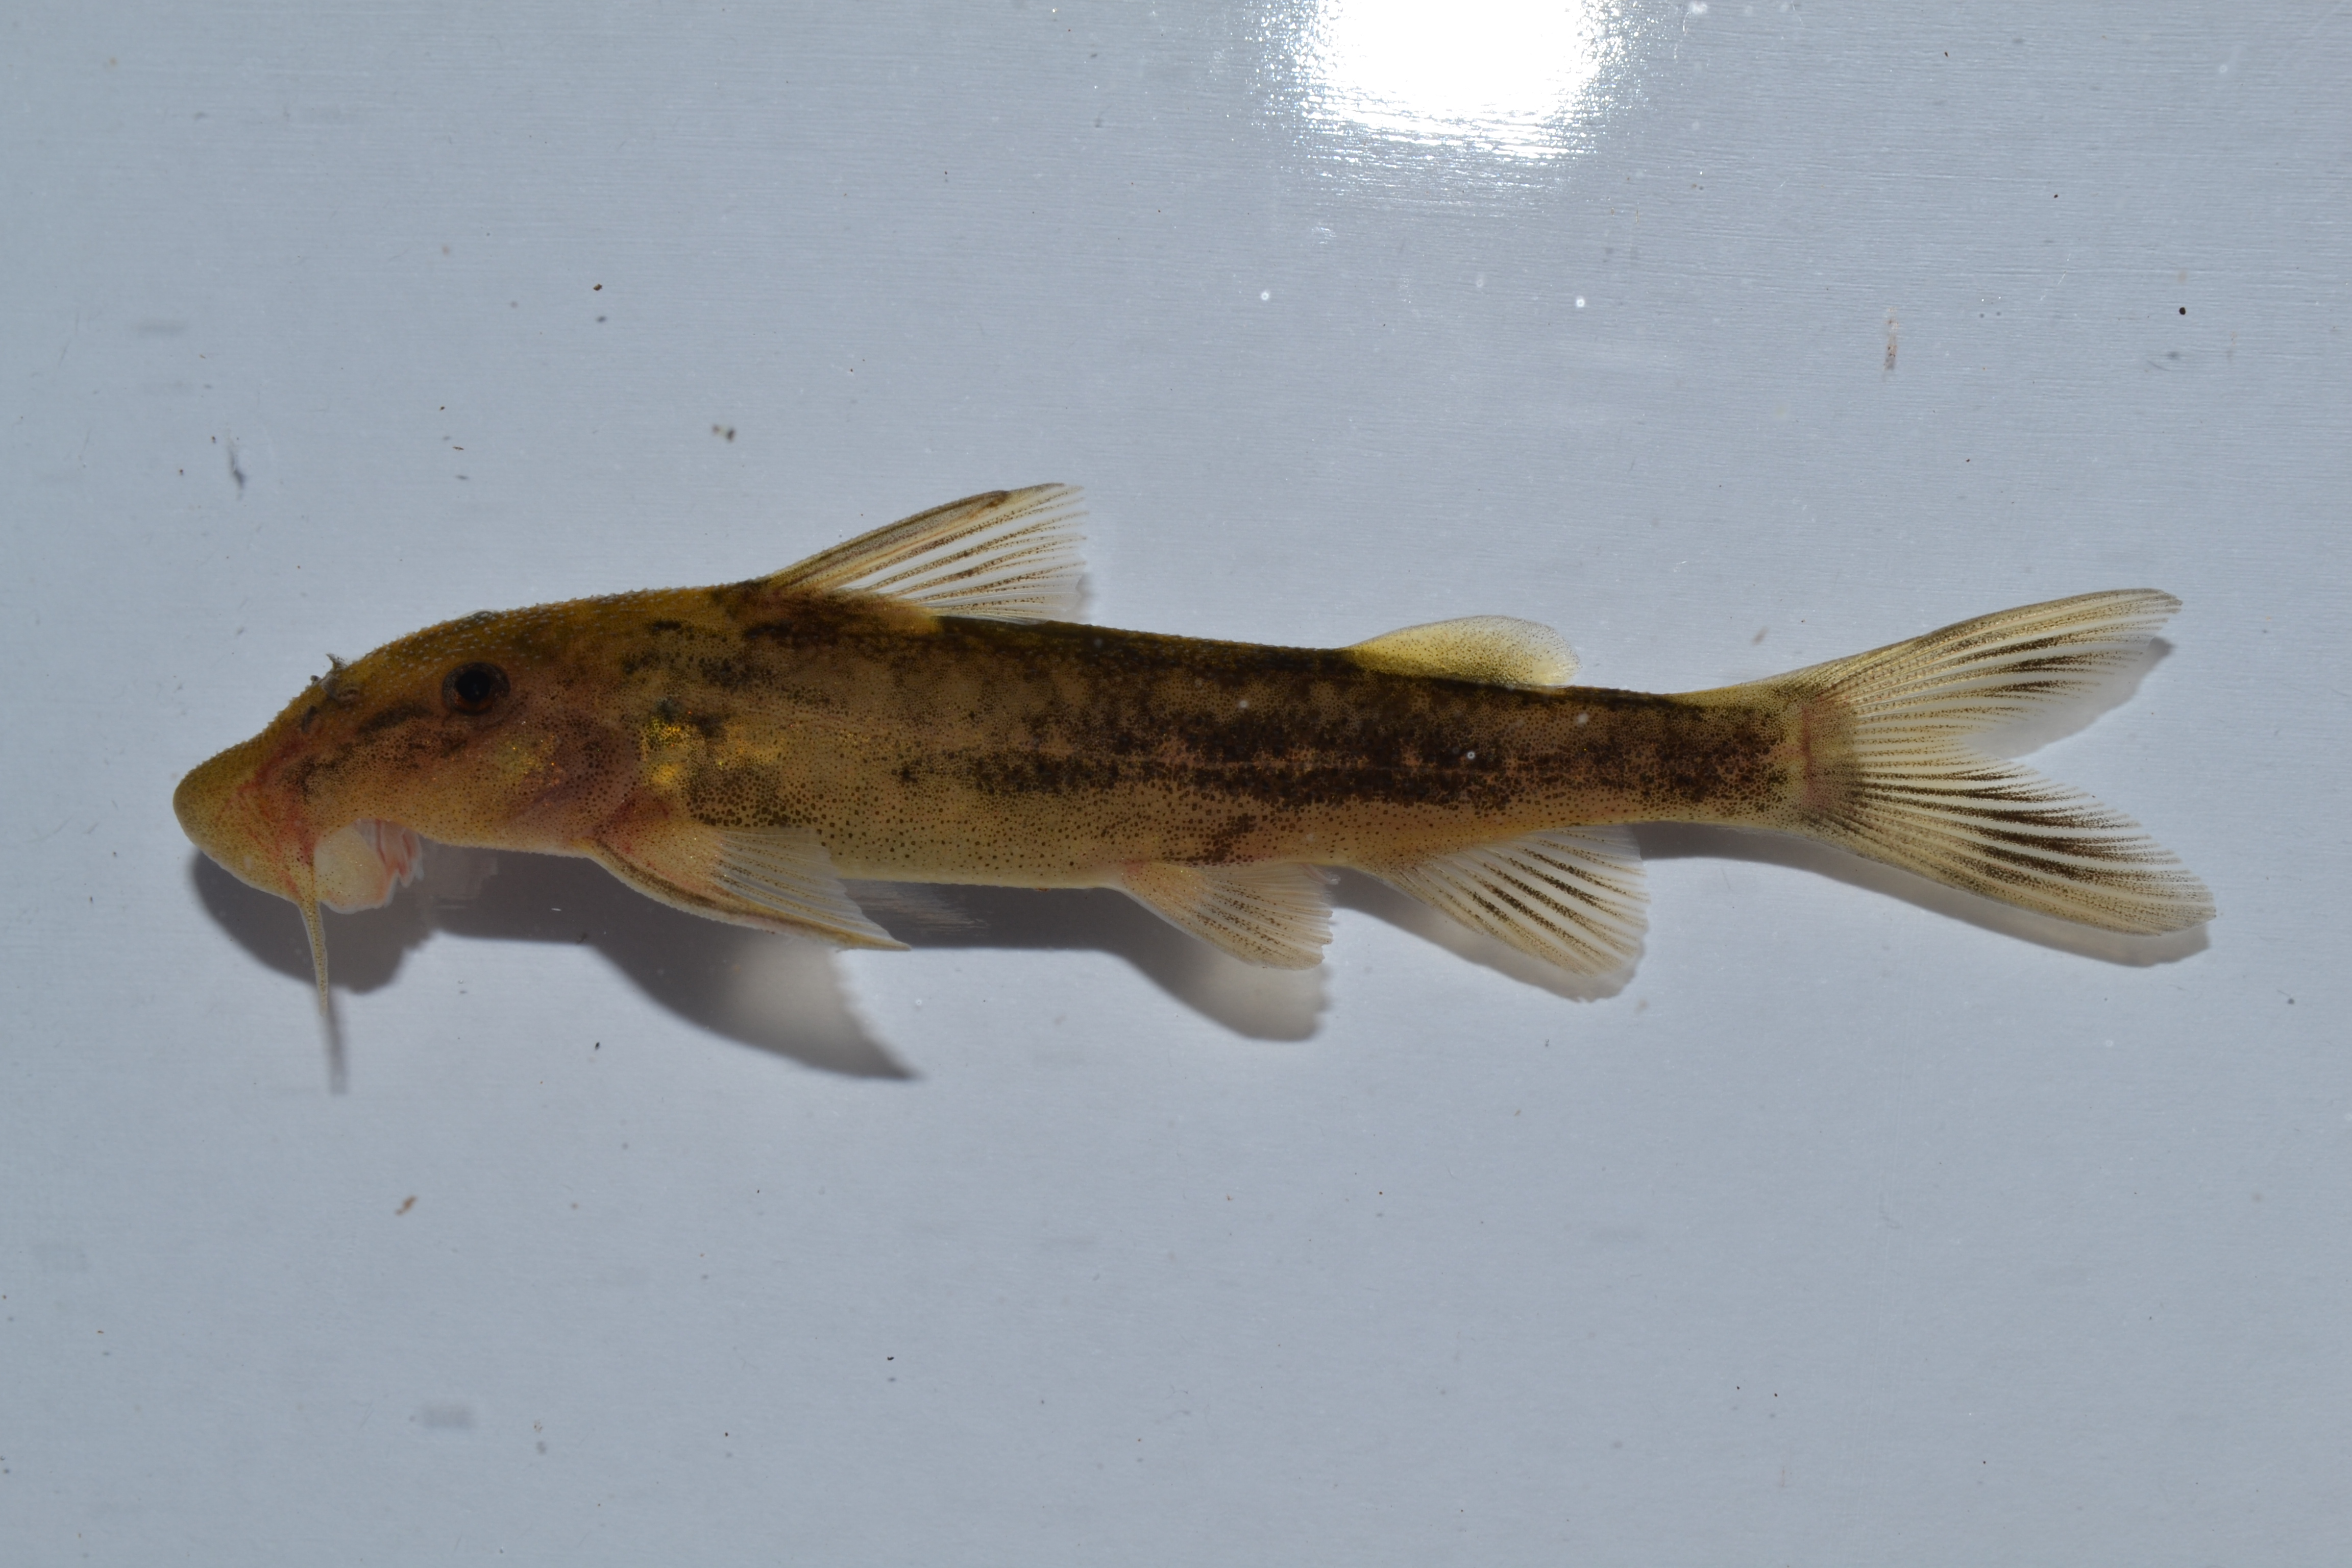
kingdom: Animalia
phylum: Chordata
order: Siluriformes
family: Mochokidae
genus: Chiloglanis
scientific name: Chiloglanis
